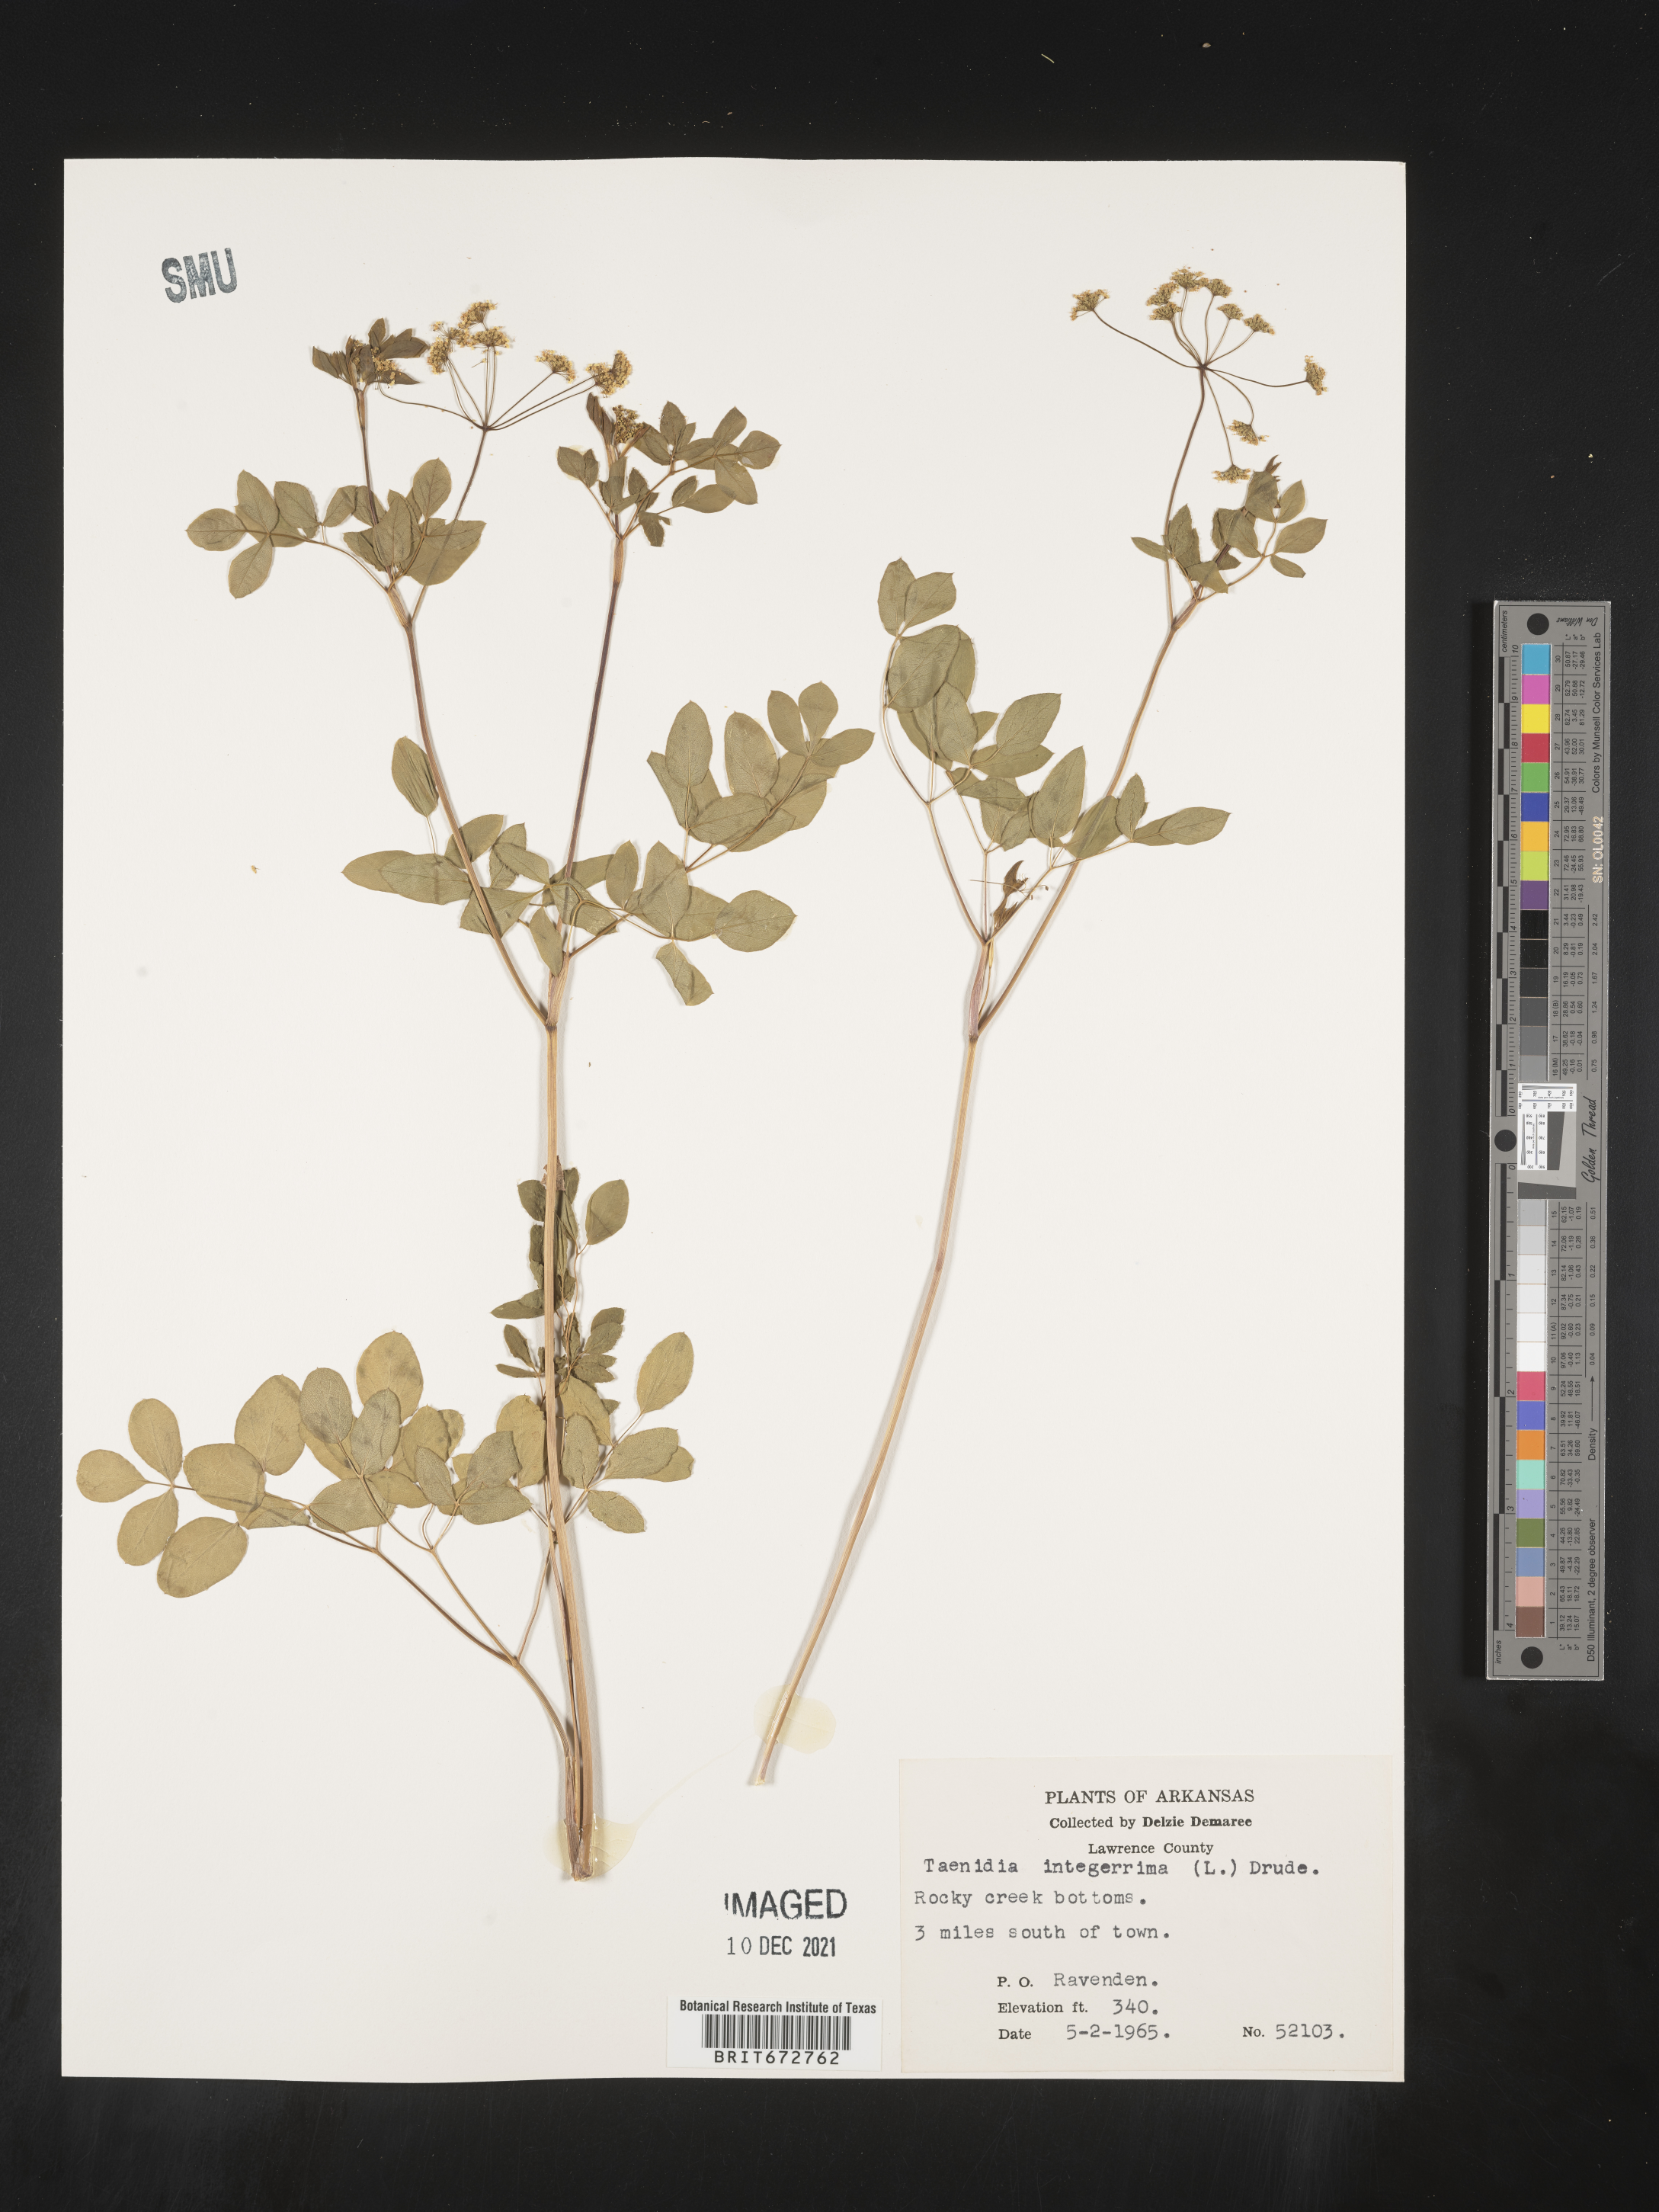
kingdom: Plantae
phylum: Tracheophyta
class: Magnoliopsida
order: Apiales
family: Apiaceae
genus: Taenidia
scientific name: Taenidia integerrima
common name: Golden alexander
